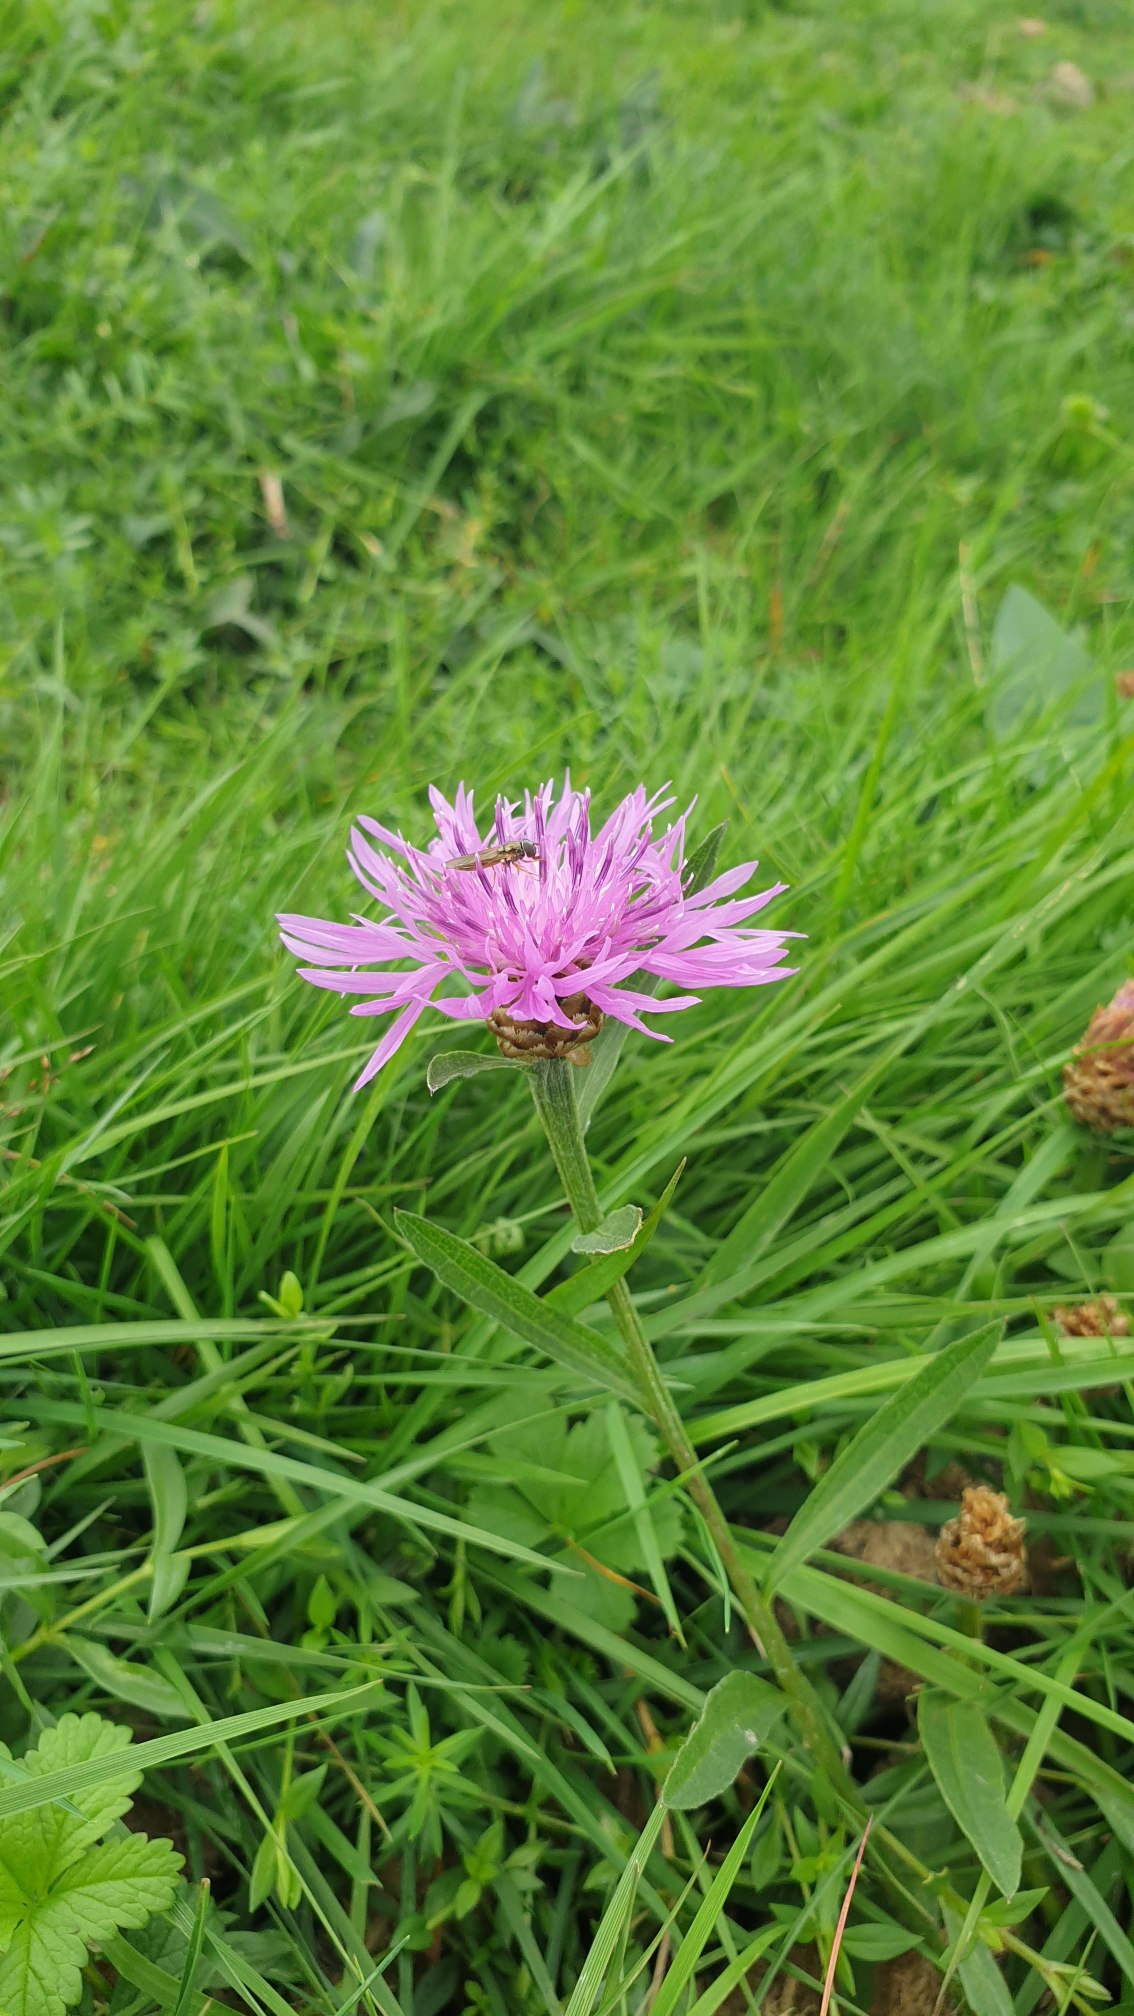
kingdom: Plantae
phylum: Tracheophyta
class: Magnoliopsida
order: Asterales
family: Asteraceae
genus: Centaurea
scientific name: Centaurea jacea
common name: Almindelig knopurt
